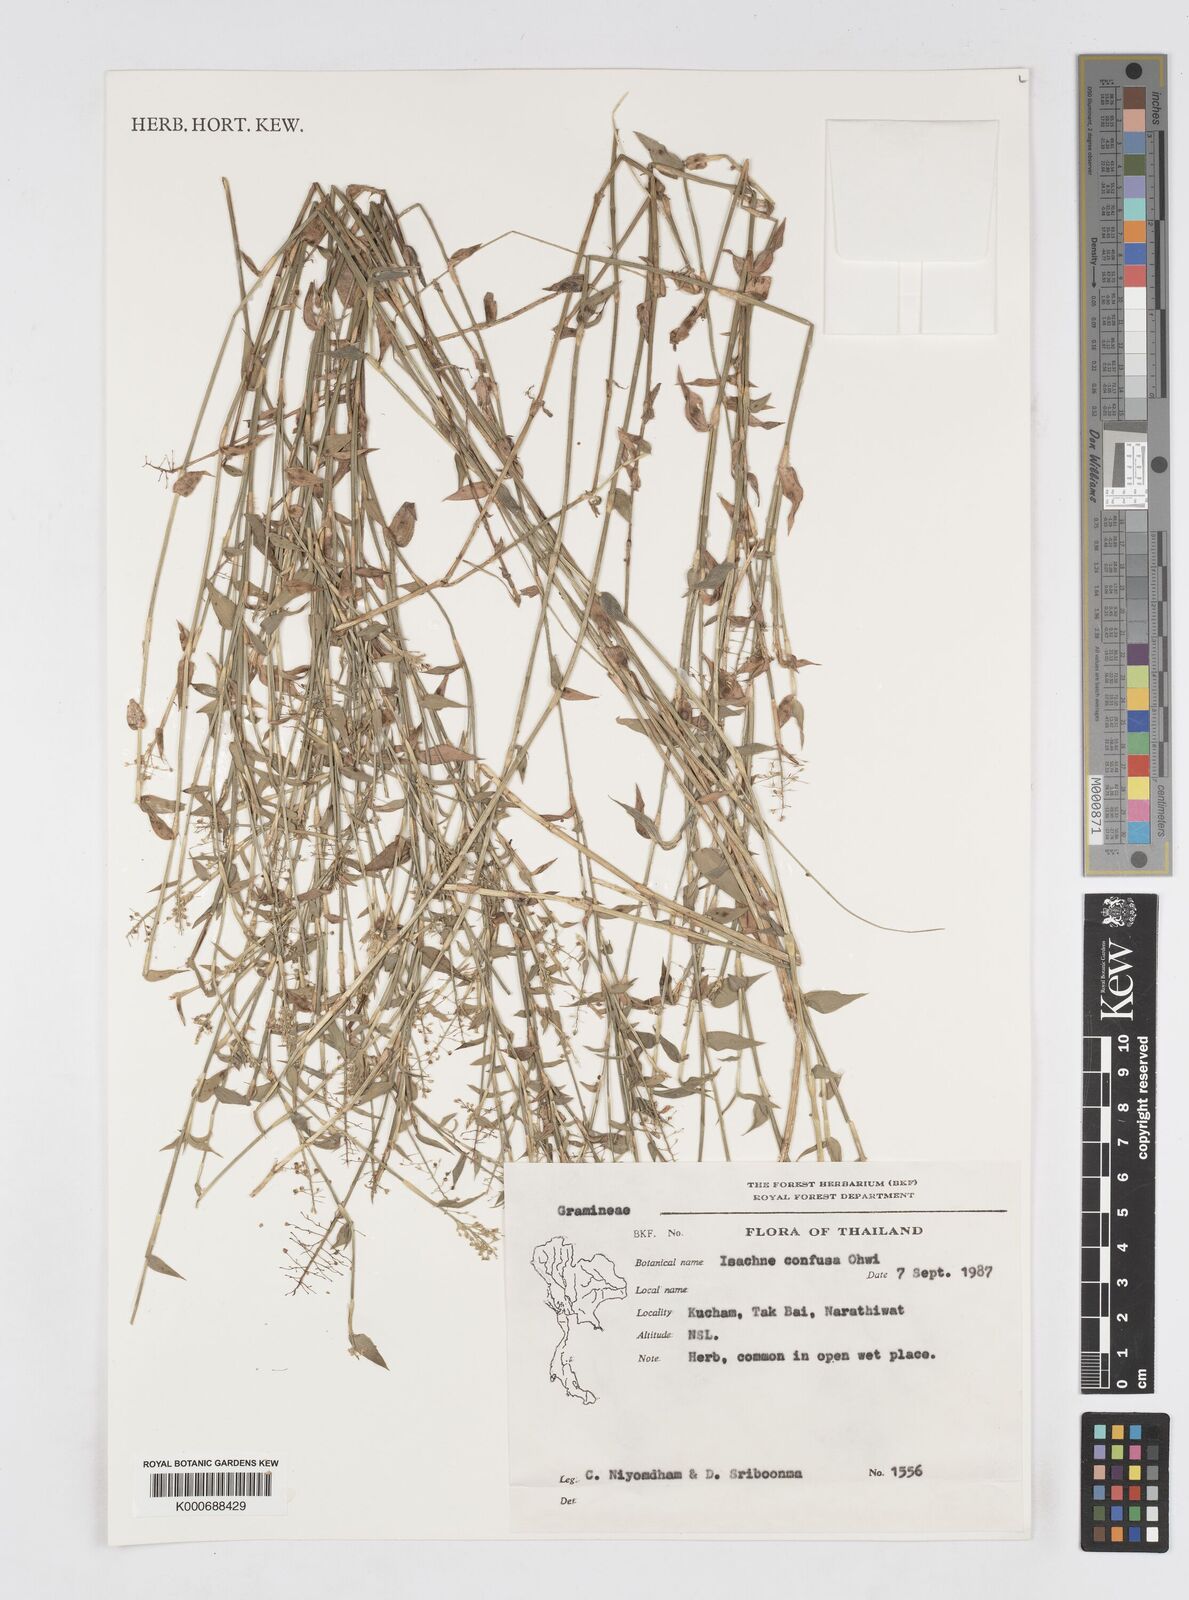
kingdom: Plantae
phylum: Tracheophyta
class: Liliopsida
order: Poales
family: Poaceae
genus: Isachne
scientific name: Isachne confusa
